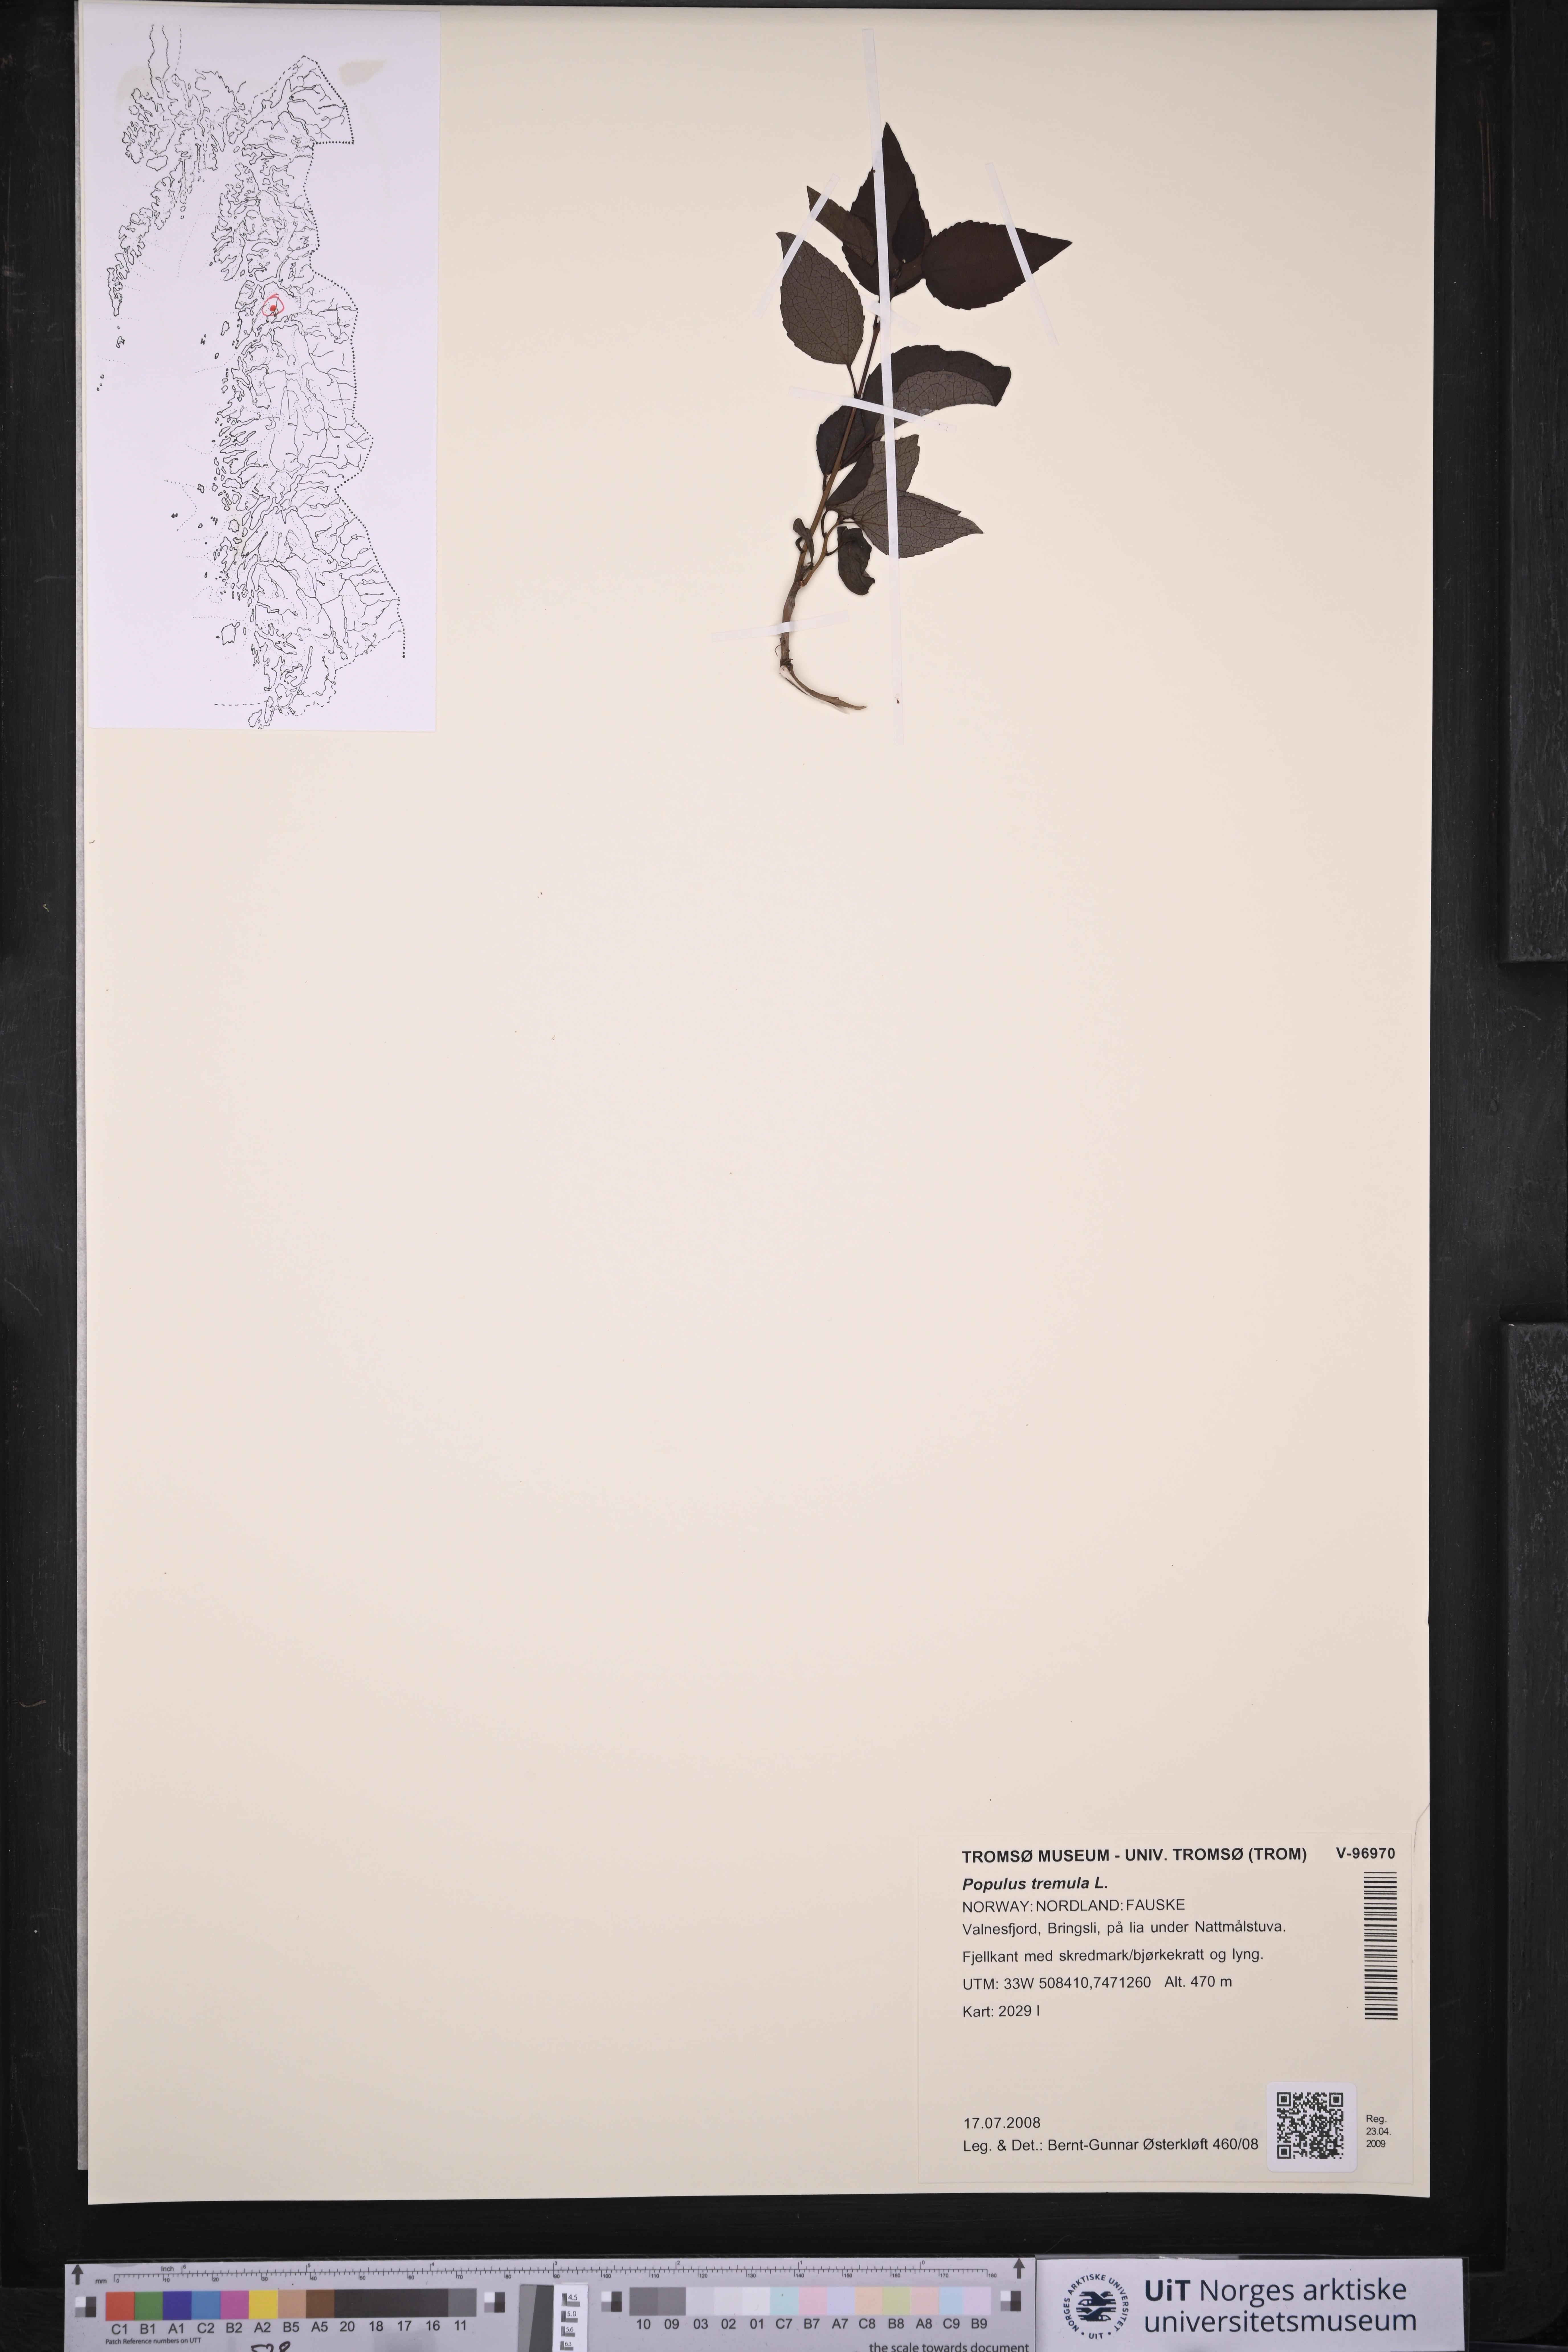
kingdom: Plantae
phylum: Tracheophyta
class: Magnoliopsida
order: Malpighiales
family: Salicaceae
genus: Populus
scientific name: Populus tremula
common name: European aspen
